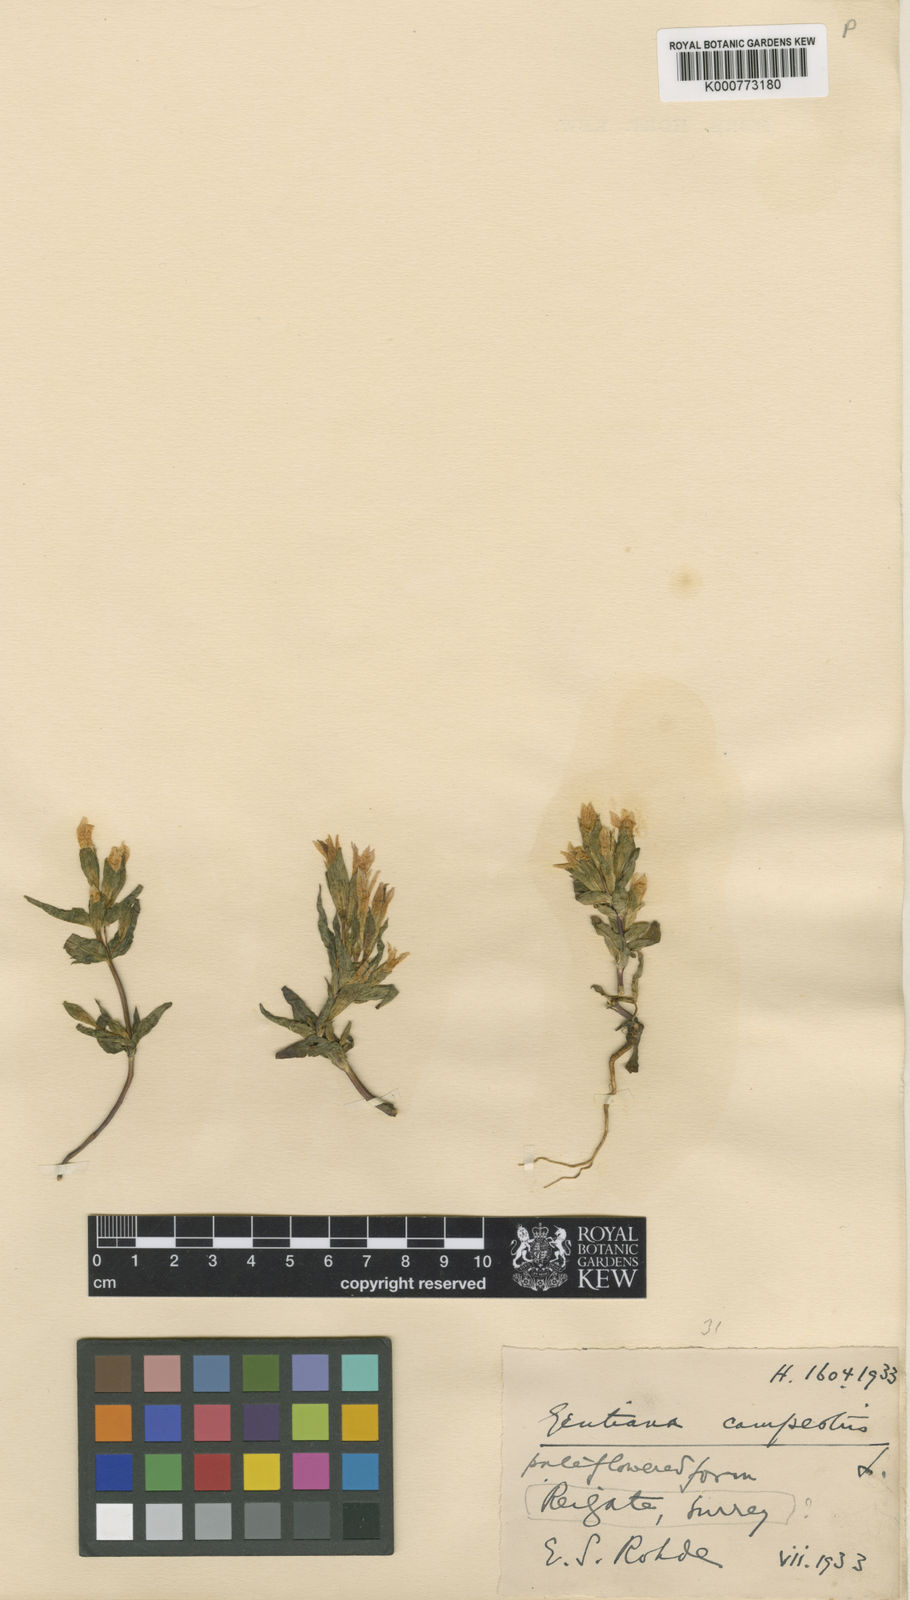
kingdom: Plantae
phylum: Tracheophyta
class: Magnoliopsida
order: Gentianales
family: Gentianaceae
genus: Gentianella
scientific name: Gentianella
